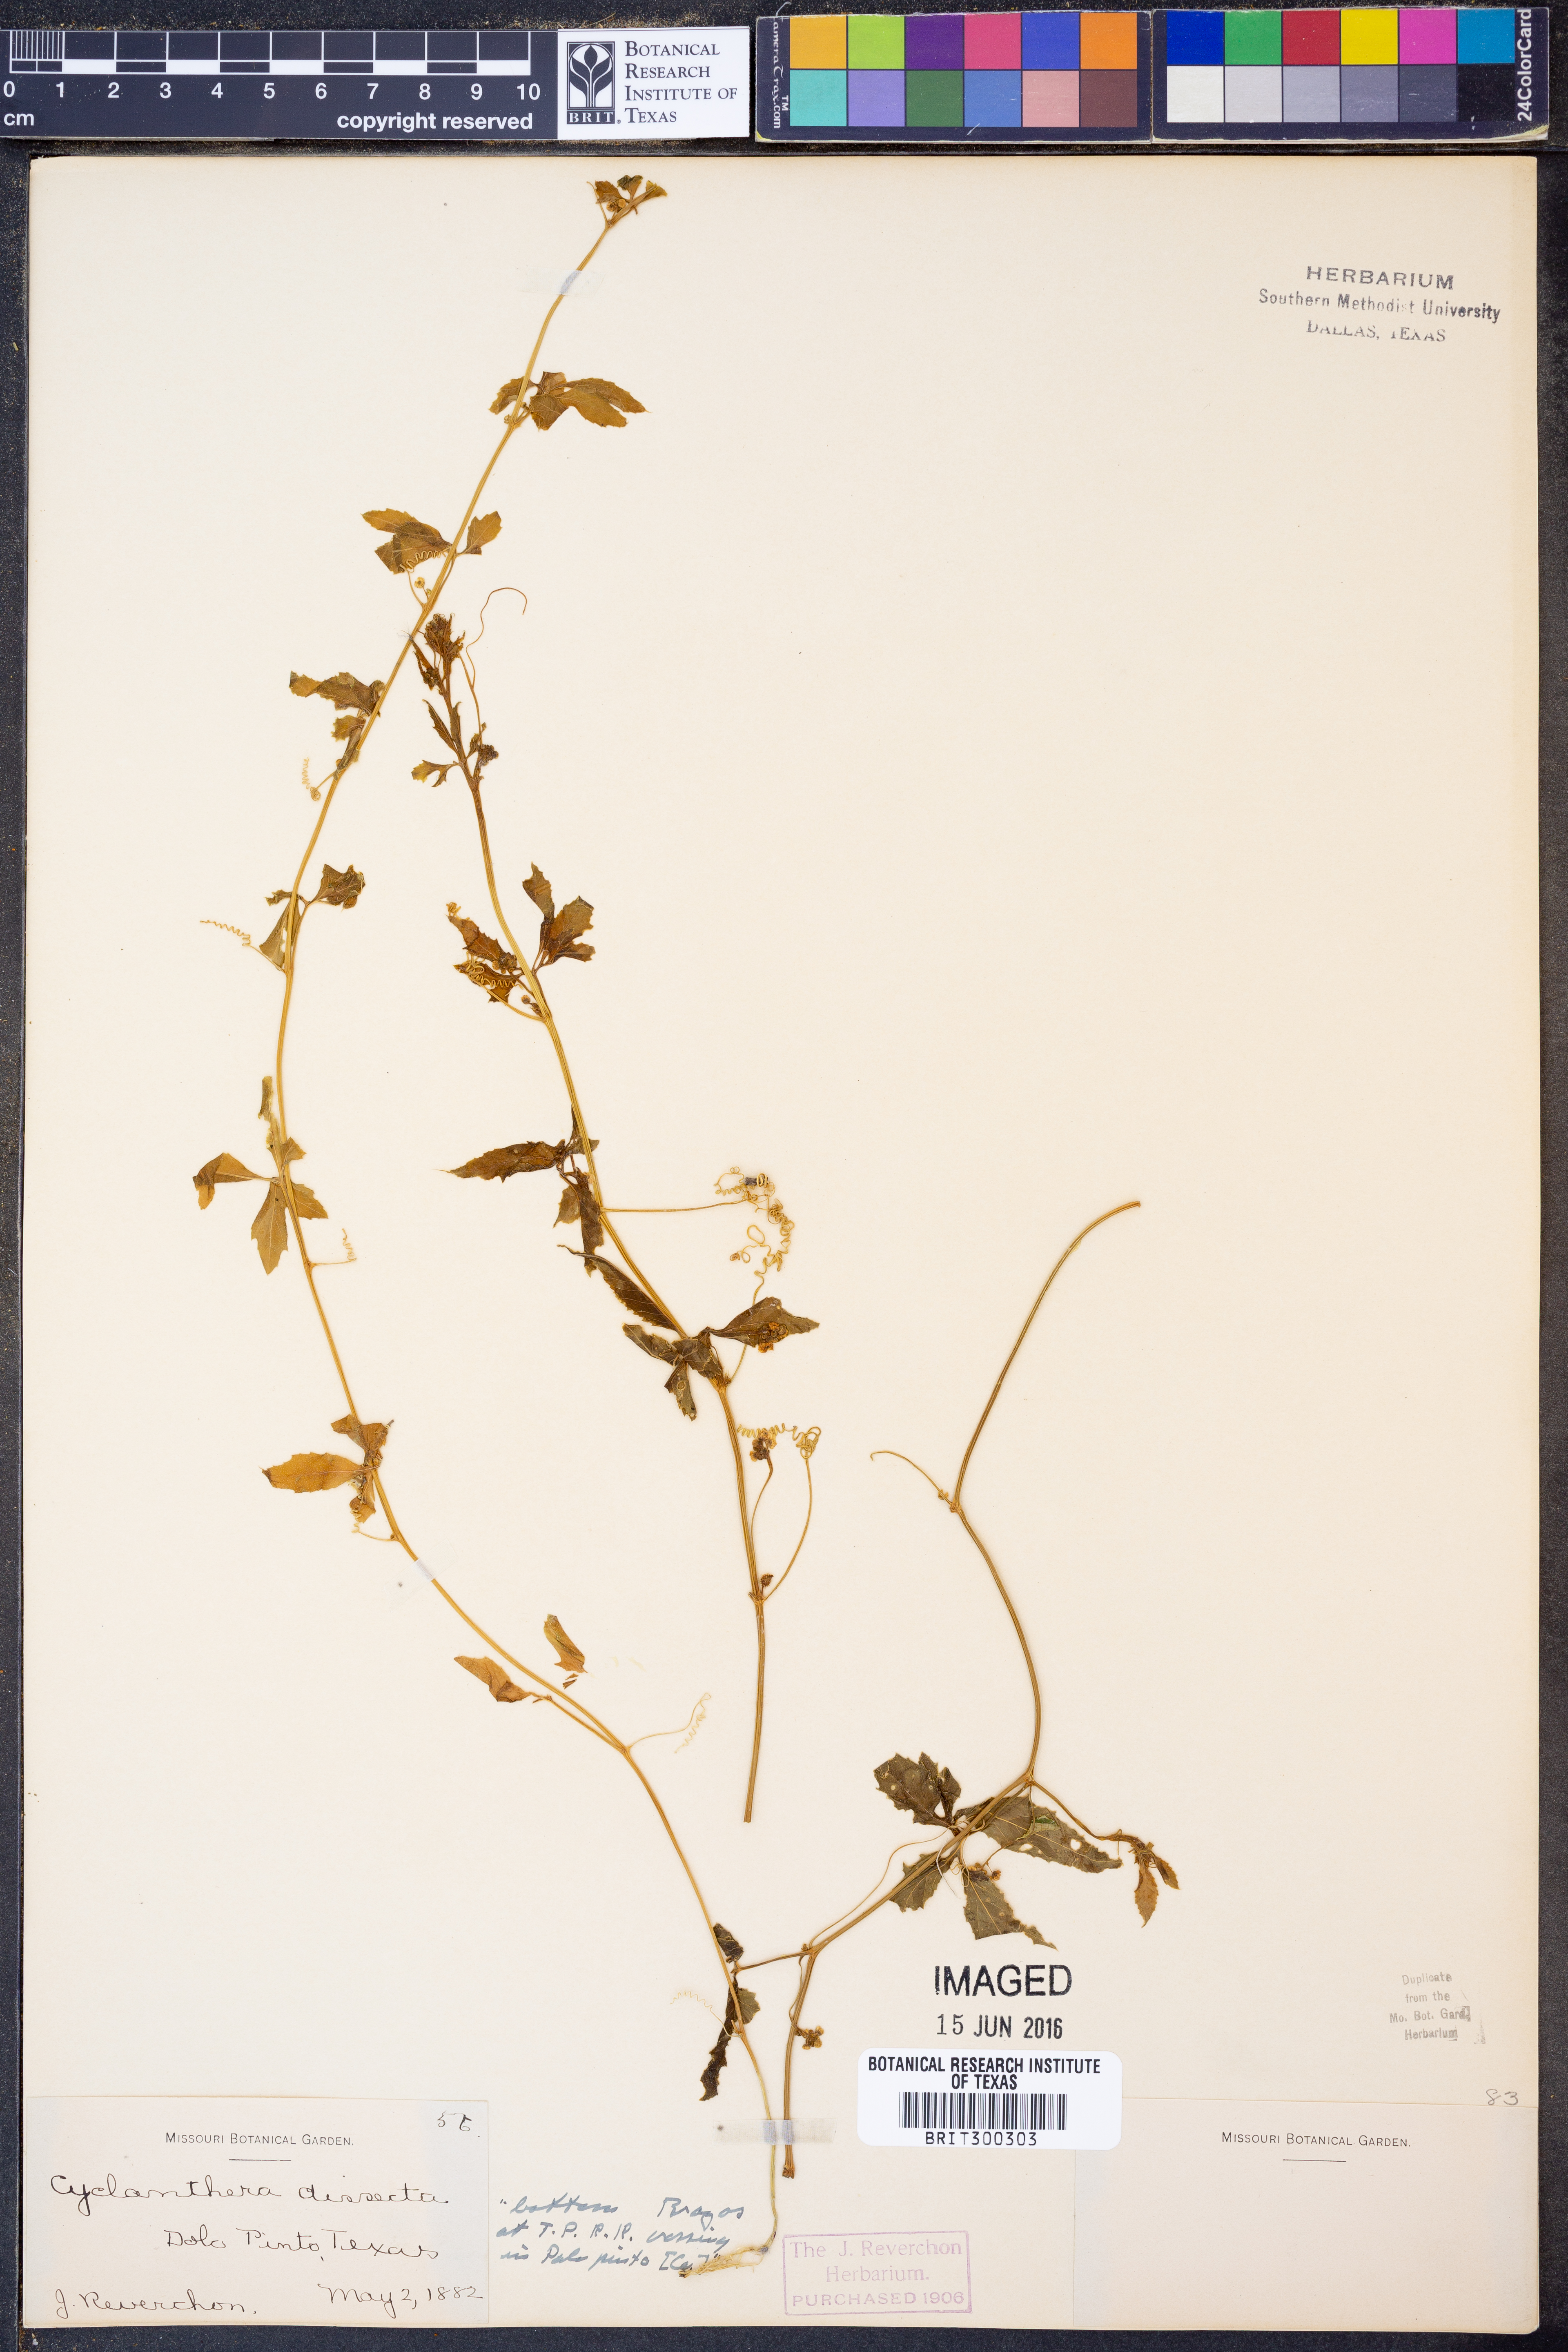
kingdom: Plantae
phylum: Tracheophyta
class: Magnoliopsida
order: Cucurbitales
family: Cucurbitaceae
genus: Cyclanthera
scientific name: Cyclanthera dissecta
